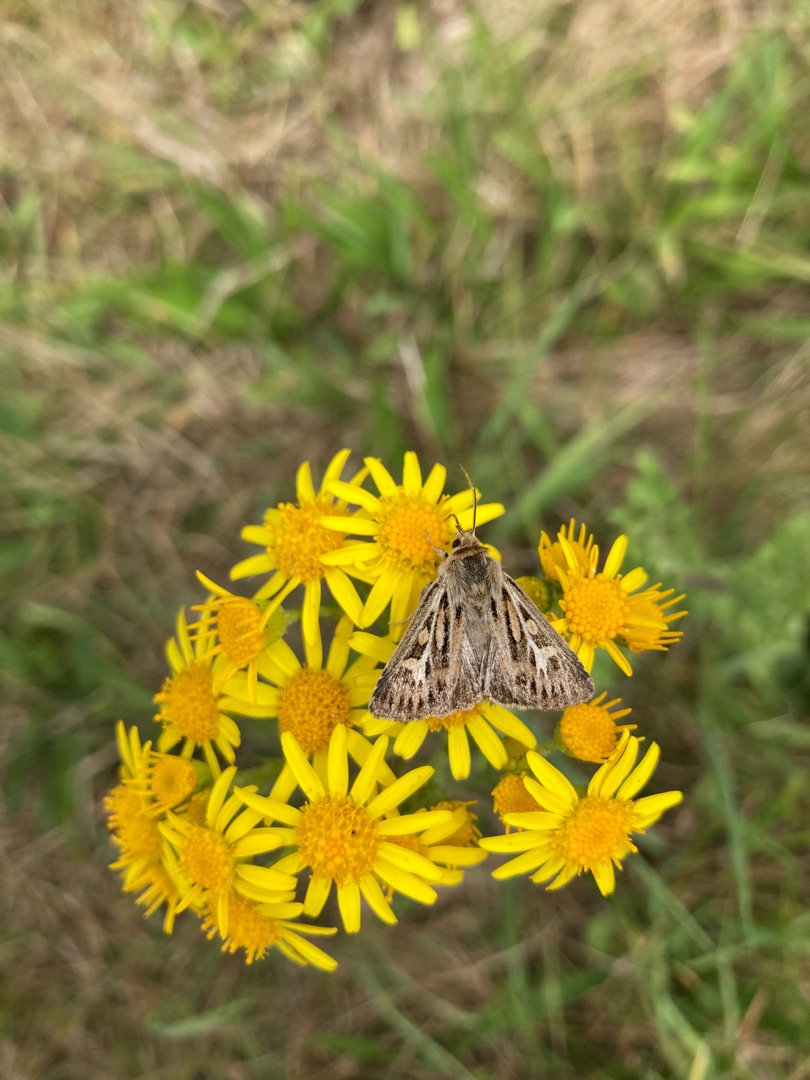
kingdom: Animalia
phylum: Arthropoda
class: Insecta
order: Lepidoptera
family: Noctuidae
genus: Cerapteryx
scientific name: Cerapteryx graminis
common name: Mosebunkeugle
